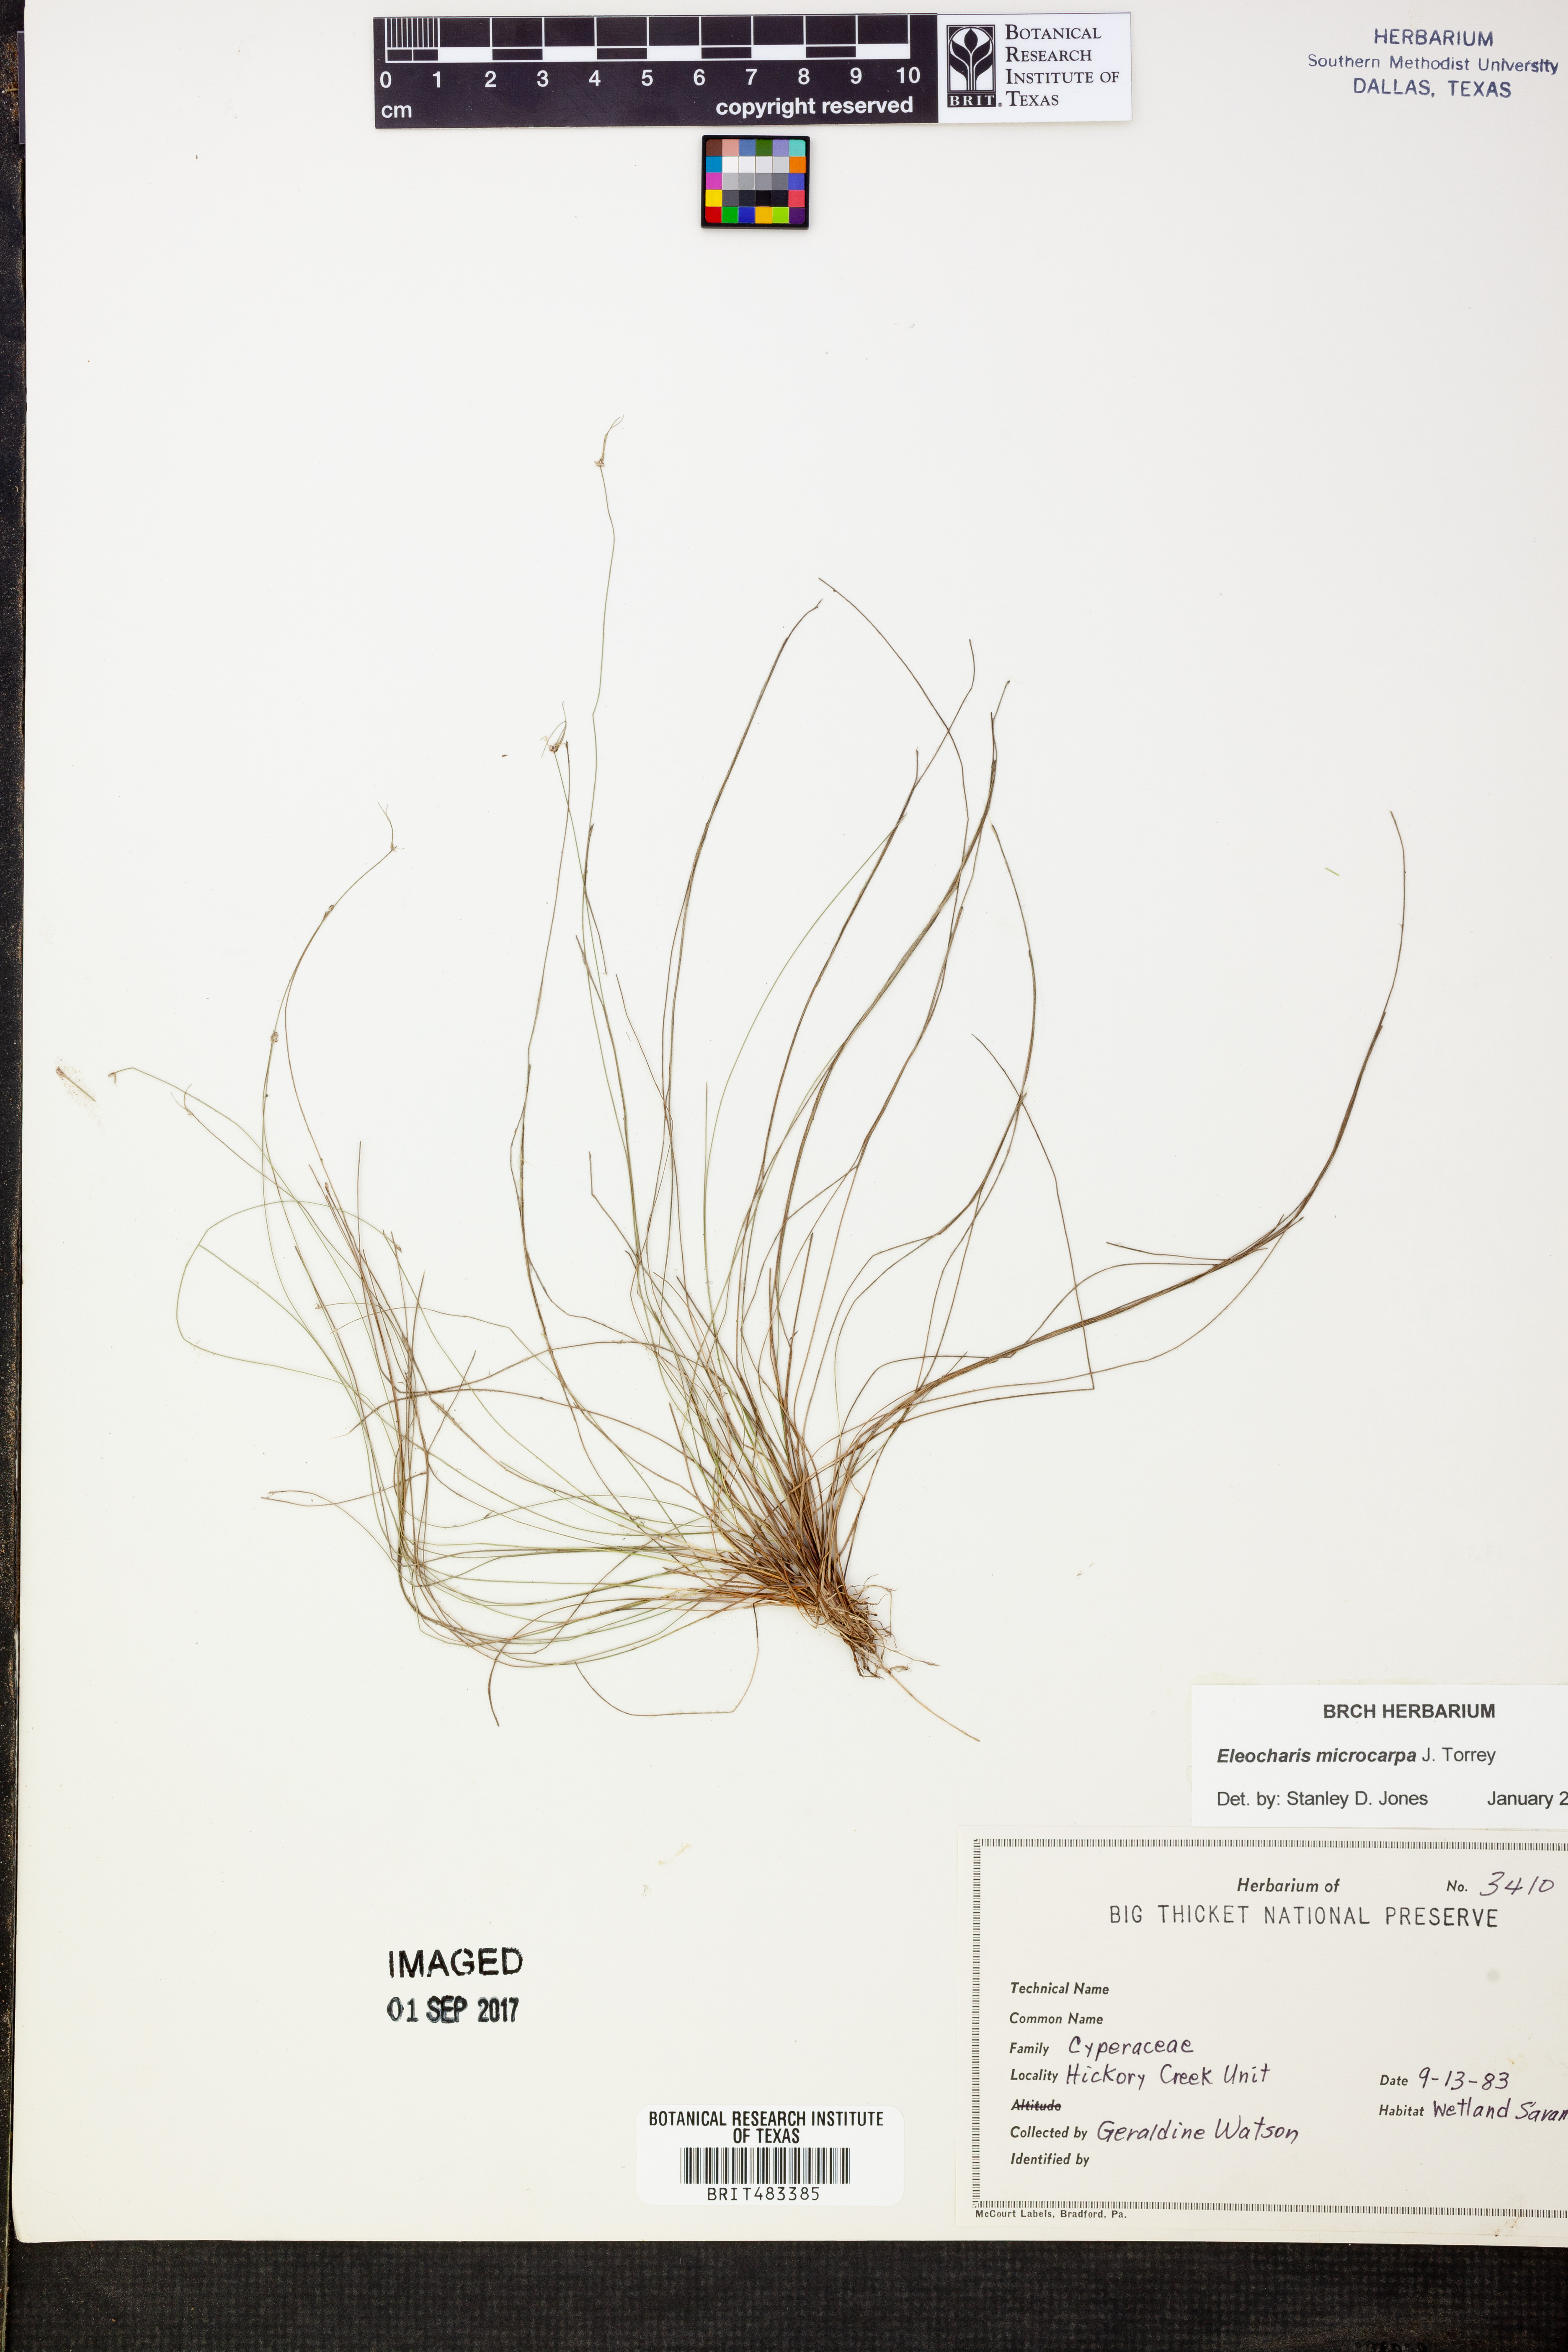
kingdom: Plantae
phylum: Tracheophyta
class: Liliopsida
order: Poales
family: Cyperaceae
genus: Eleocharis
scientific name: Eleocharis microcarpa
